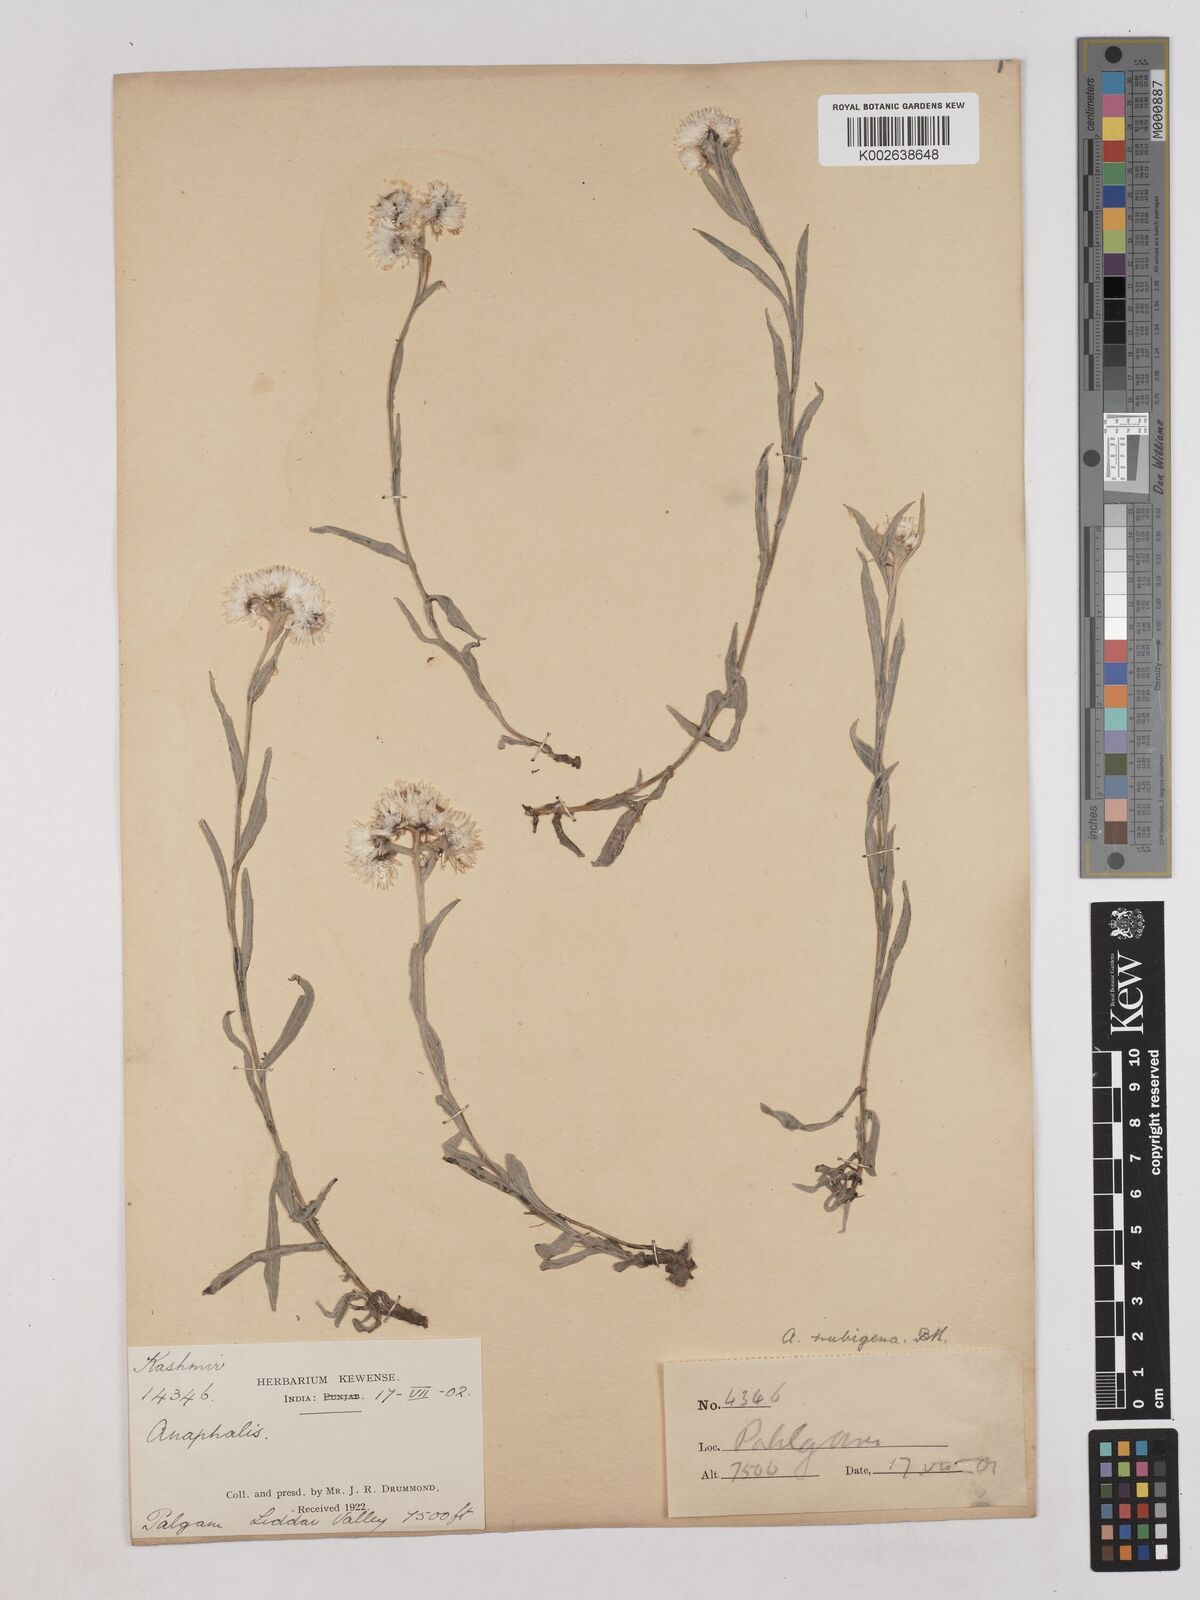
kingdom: Plantae
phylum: Tracheophyta
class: Magnoliopsida
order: Asterales
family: Asteraceae
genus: Anaphalis
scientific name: Anaphalis nepalensis
